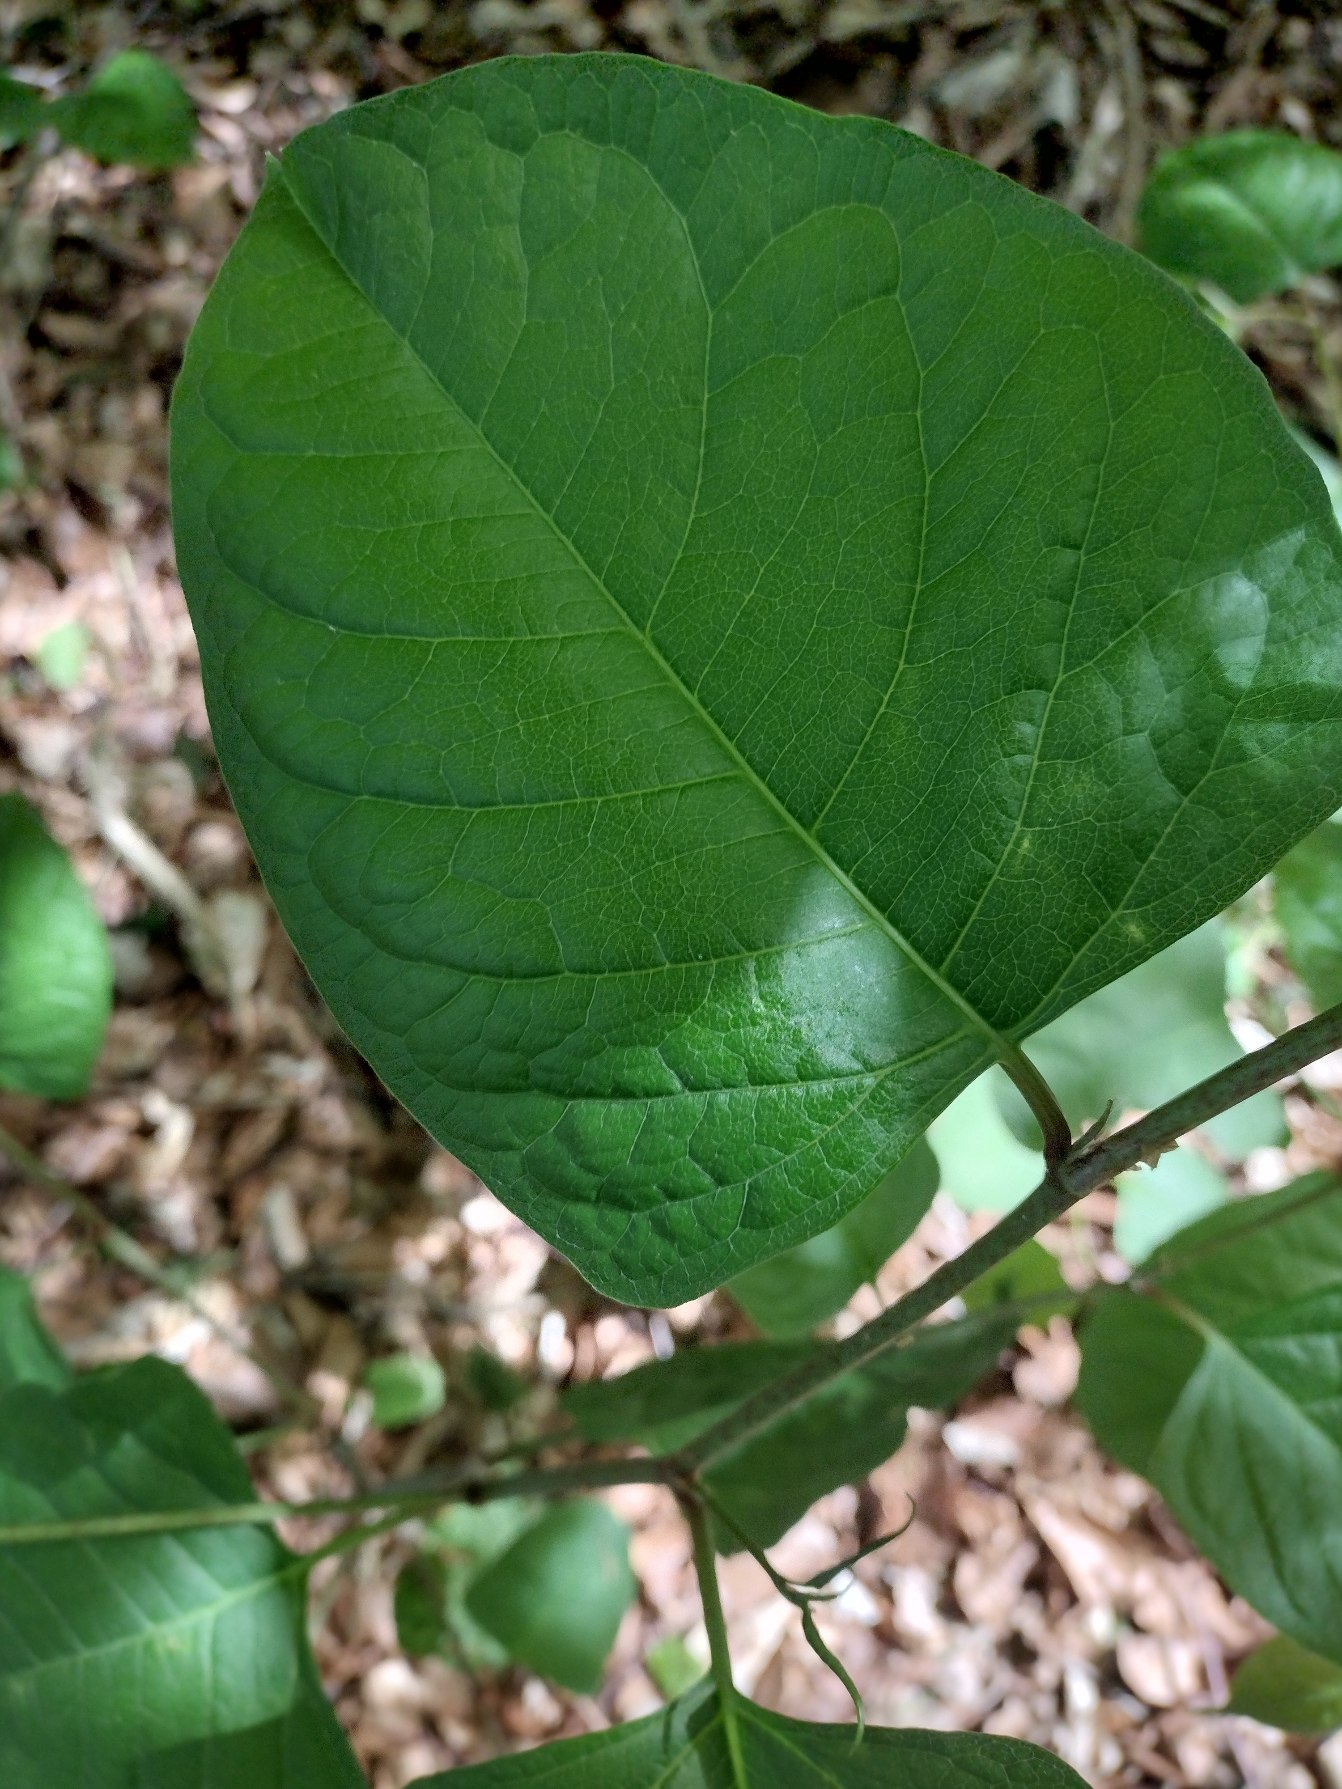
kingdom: Plantae
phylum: Tracheophyta
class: Magnoliopsida
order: Caryophyllales
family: Polygonaceae
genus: Reynoutria
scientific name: Reynoutria japonica
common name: Japan-pileurt
